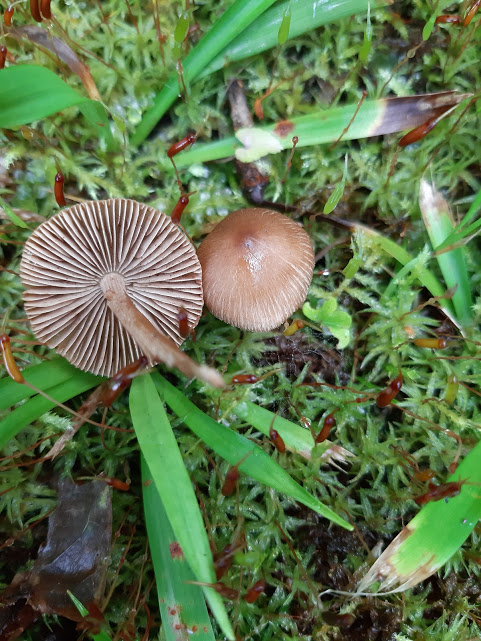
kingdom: Fungi
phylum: Basidiomycota
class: Agaricomycetes
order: Agaricales
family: Inocybaceae
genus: Inocybe
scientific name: Inocybe
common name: trævlhat
